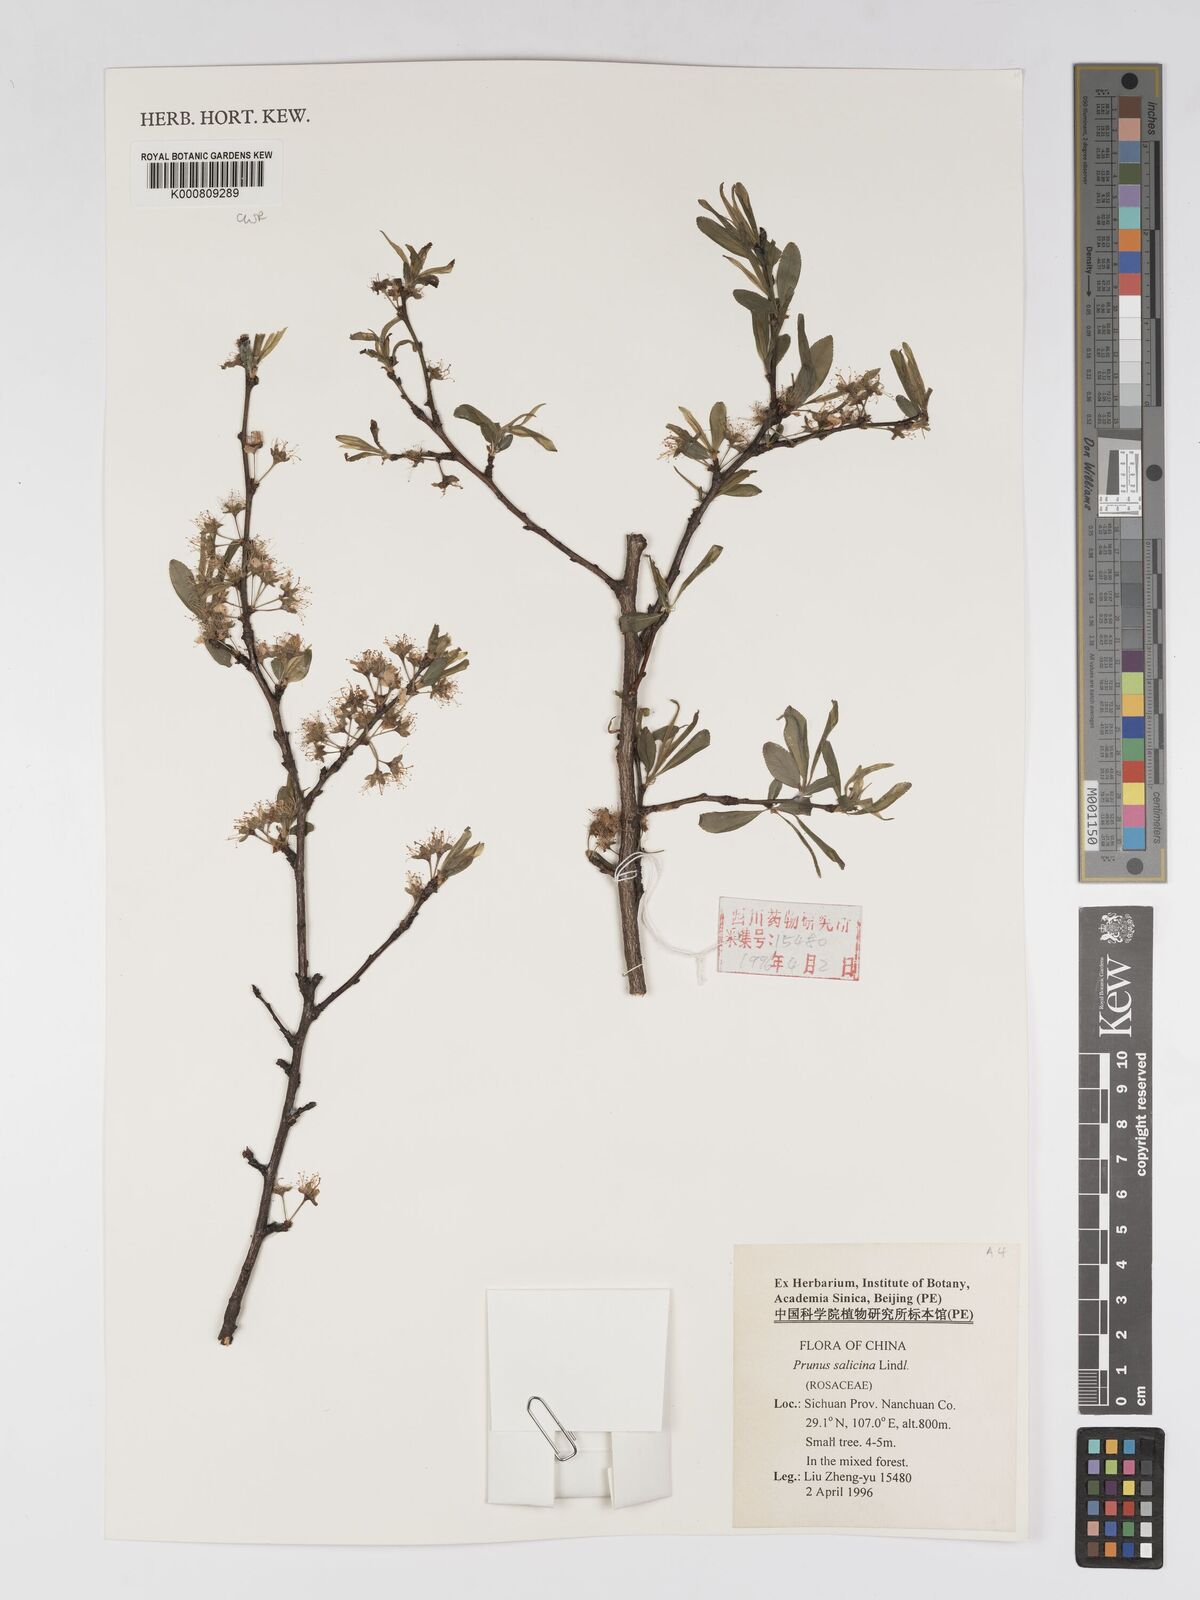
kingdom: Plantae
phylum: Tracheophyta
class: Magnoliopsida
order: Rosales
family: Rosaceae
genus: Prunus
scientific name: Prunus salicina
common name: Asian plum
